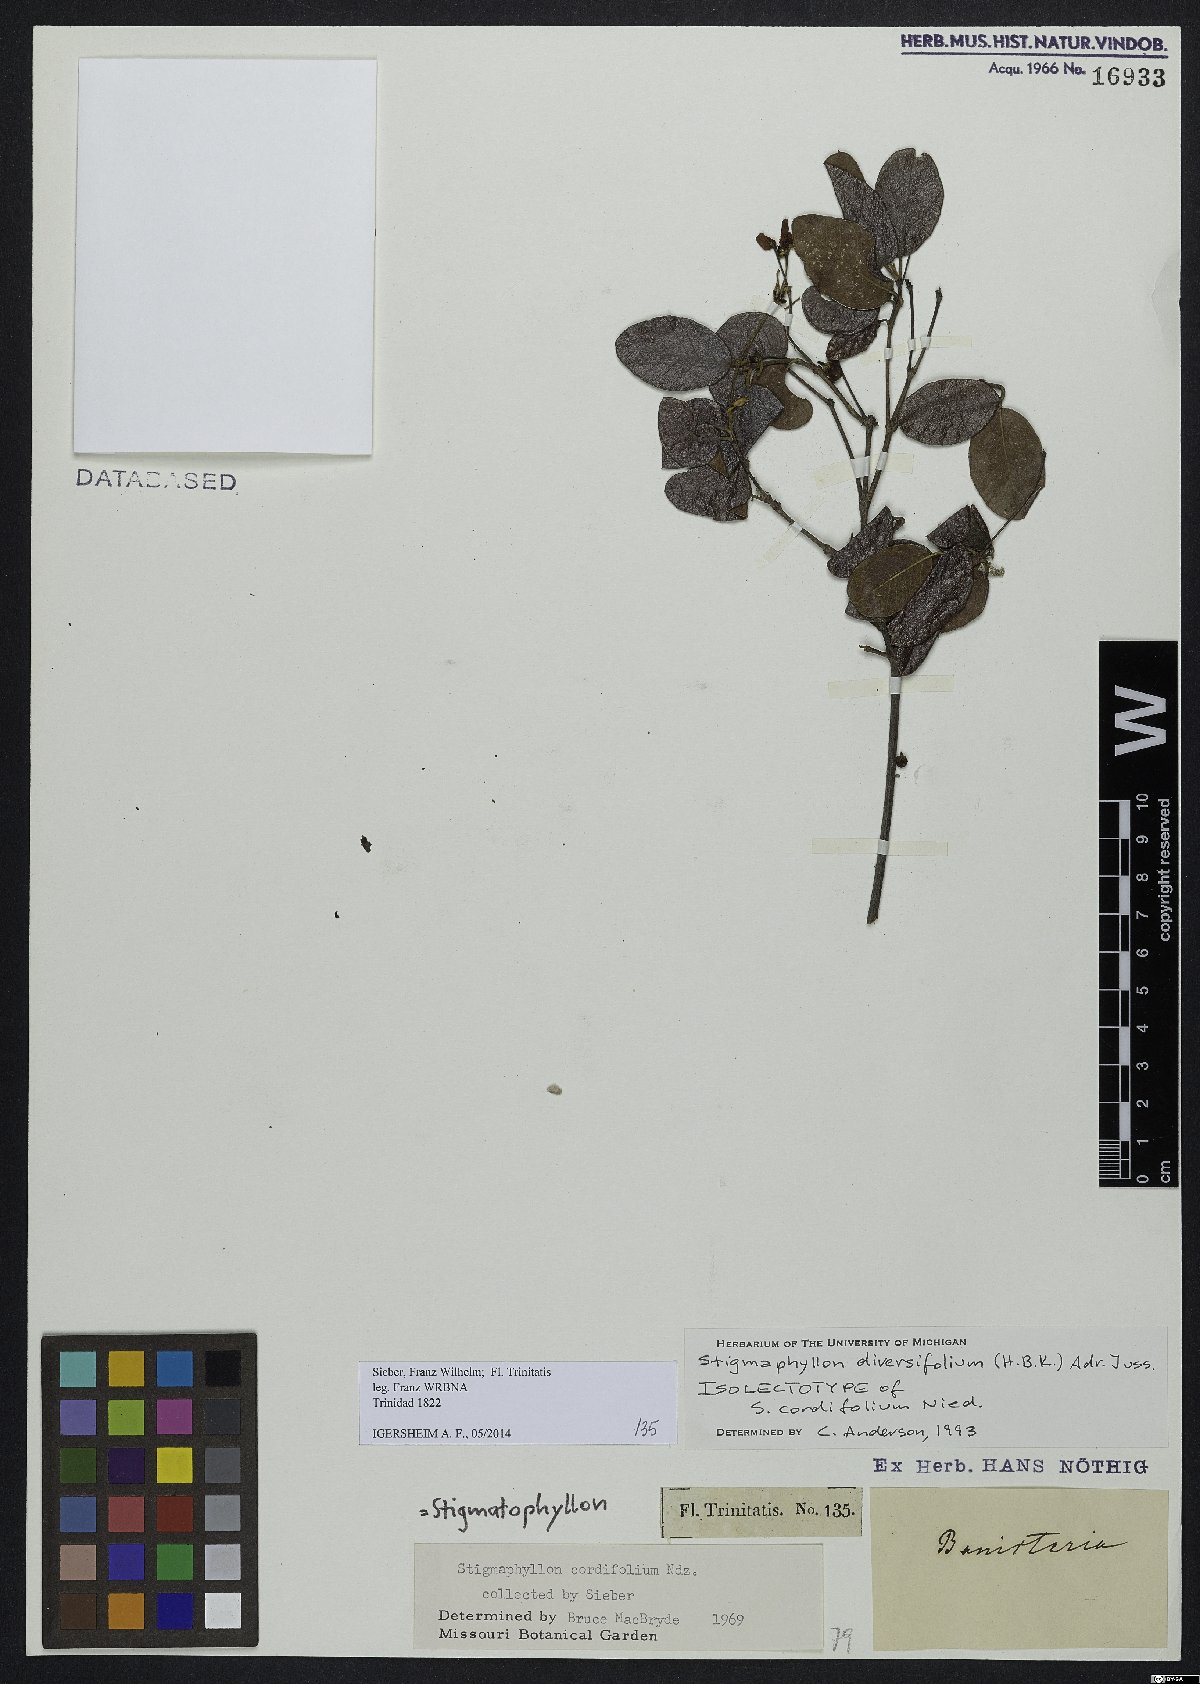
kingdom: Plantae
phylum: Tracheophyta
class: Magnoliopsida
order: Malpighiales
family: Malpighiaceae
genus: Stigmaphyllon
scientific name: Stigmaphyllon diversifolium
